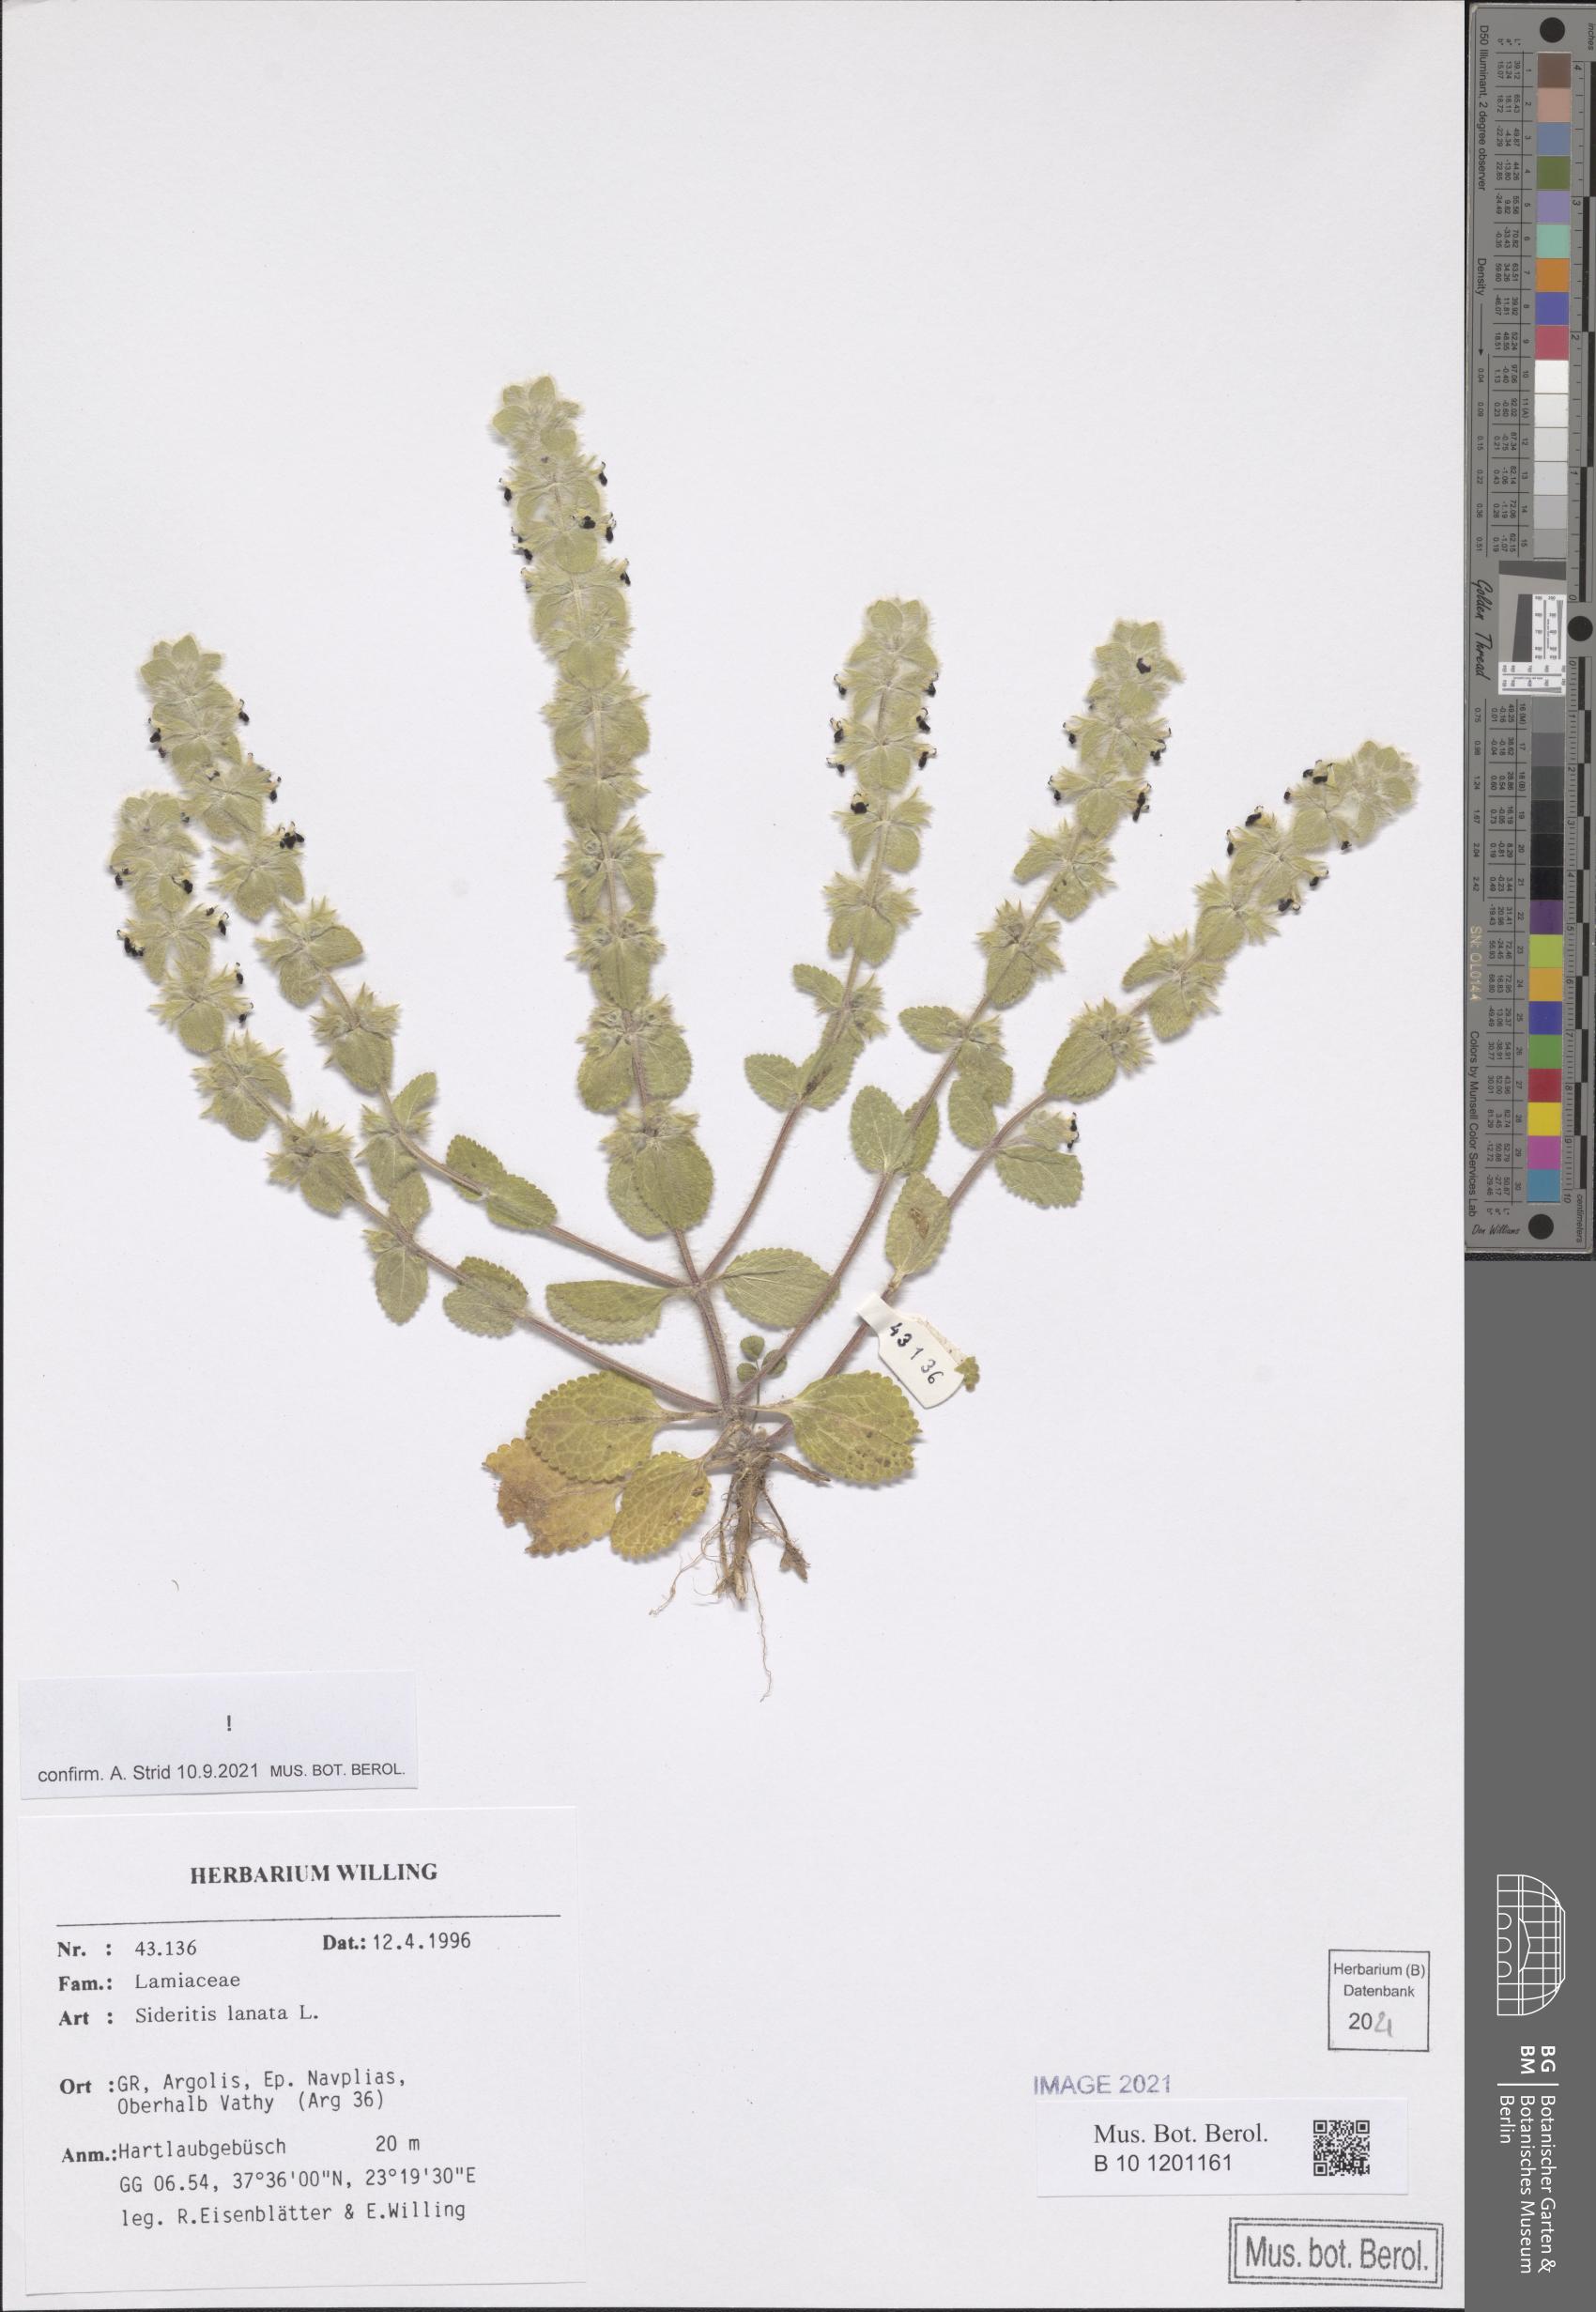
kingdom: Plantae
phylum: Tracheophyta
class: Magnoliopsida
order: Lamiales
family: Lamiaceae
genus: Sideritis
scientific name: Sideritis lanata
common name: Hairy ironwort
